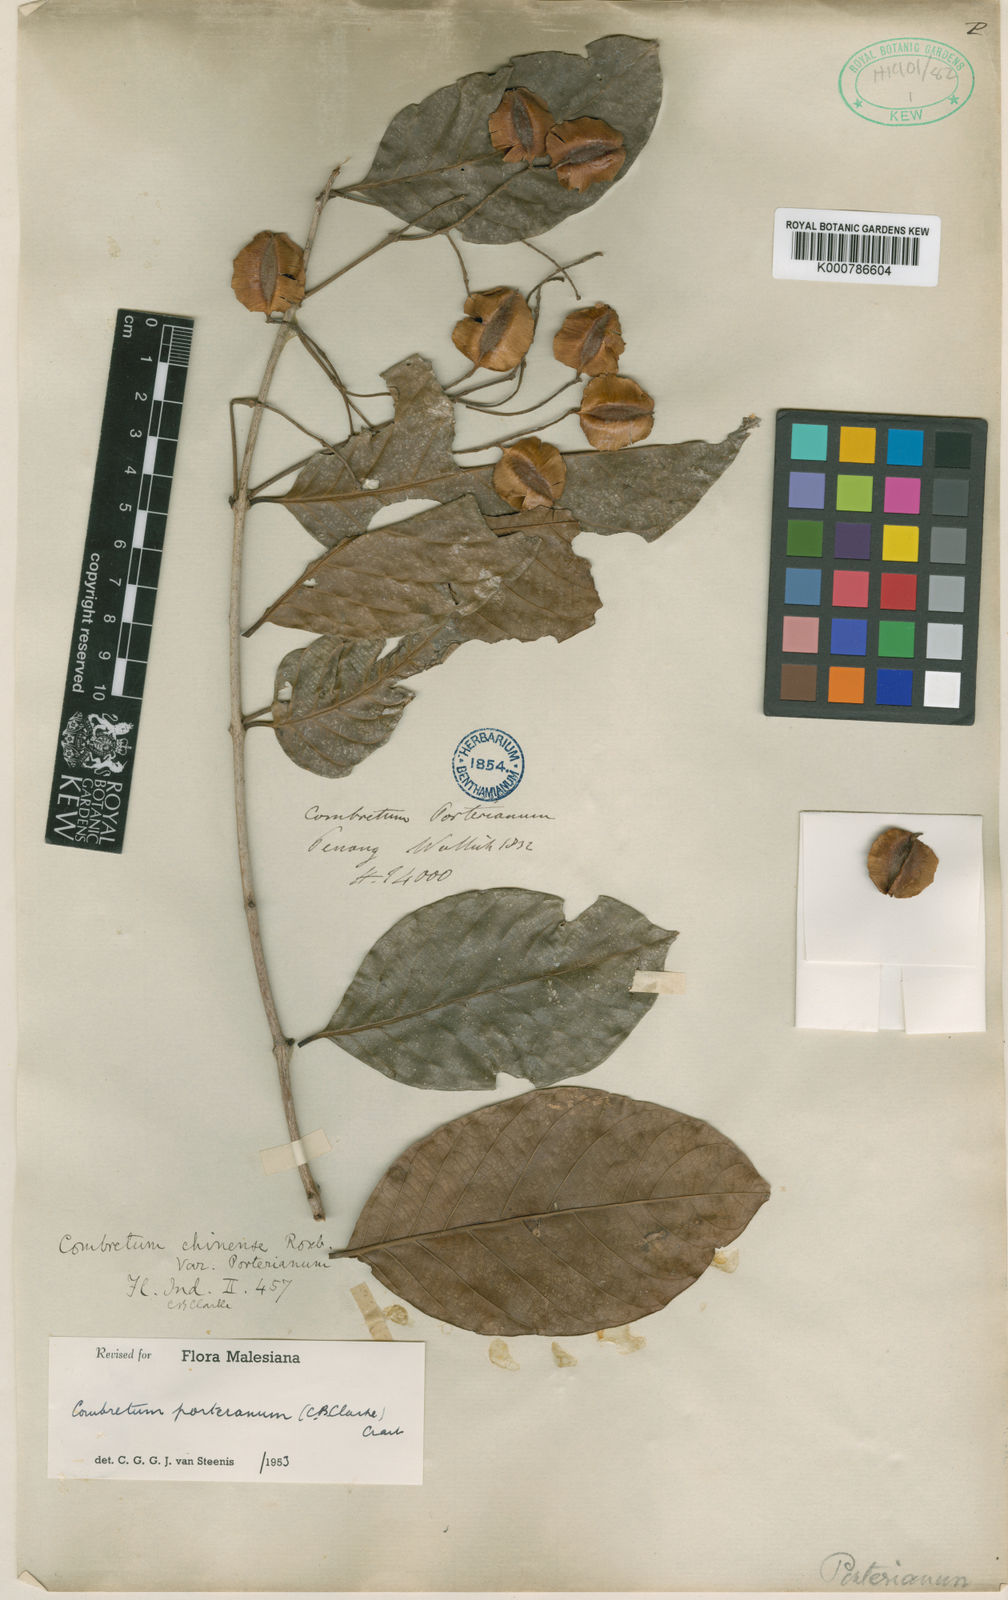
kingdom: Plantae
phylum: Tracheophyta
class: Magnoliopsida
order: Myrtales
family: Combretaceae
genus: Combretum
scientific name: Combretum
